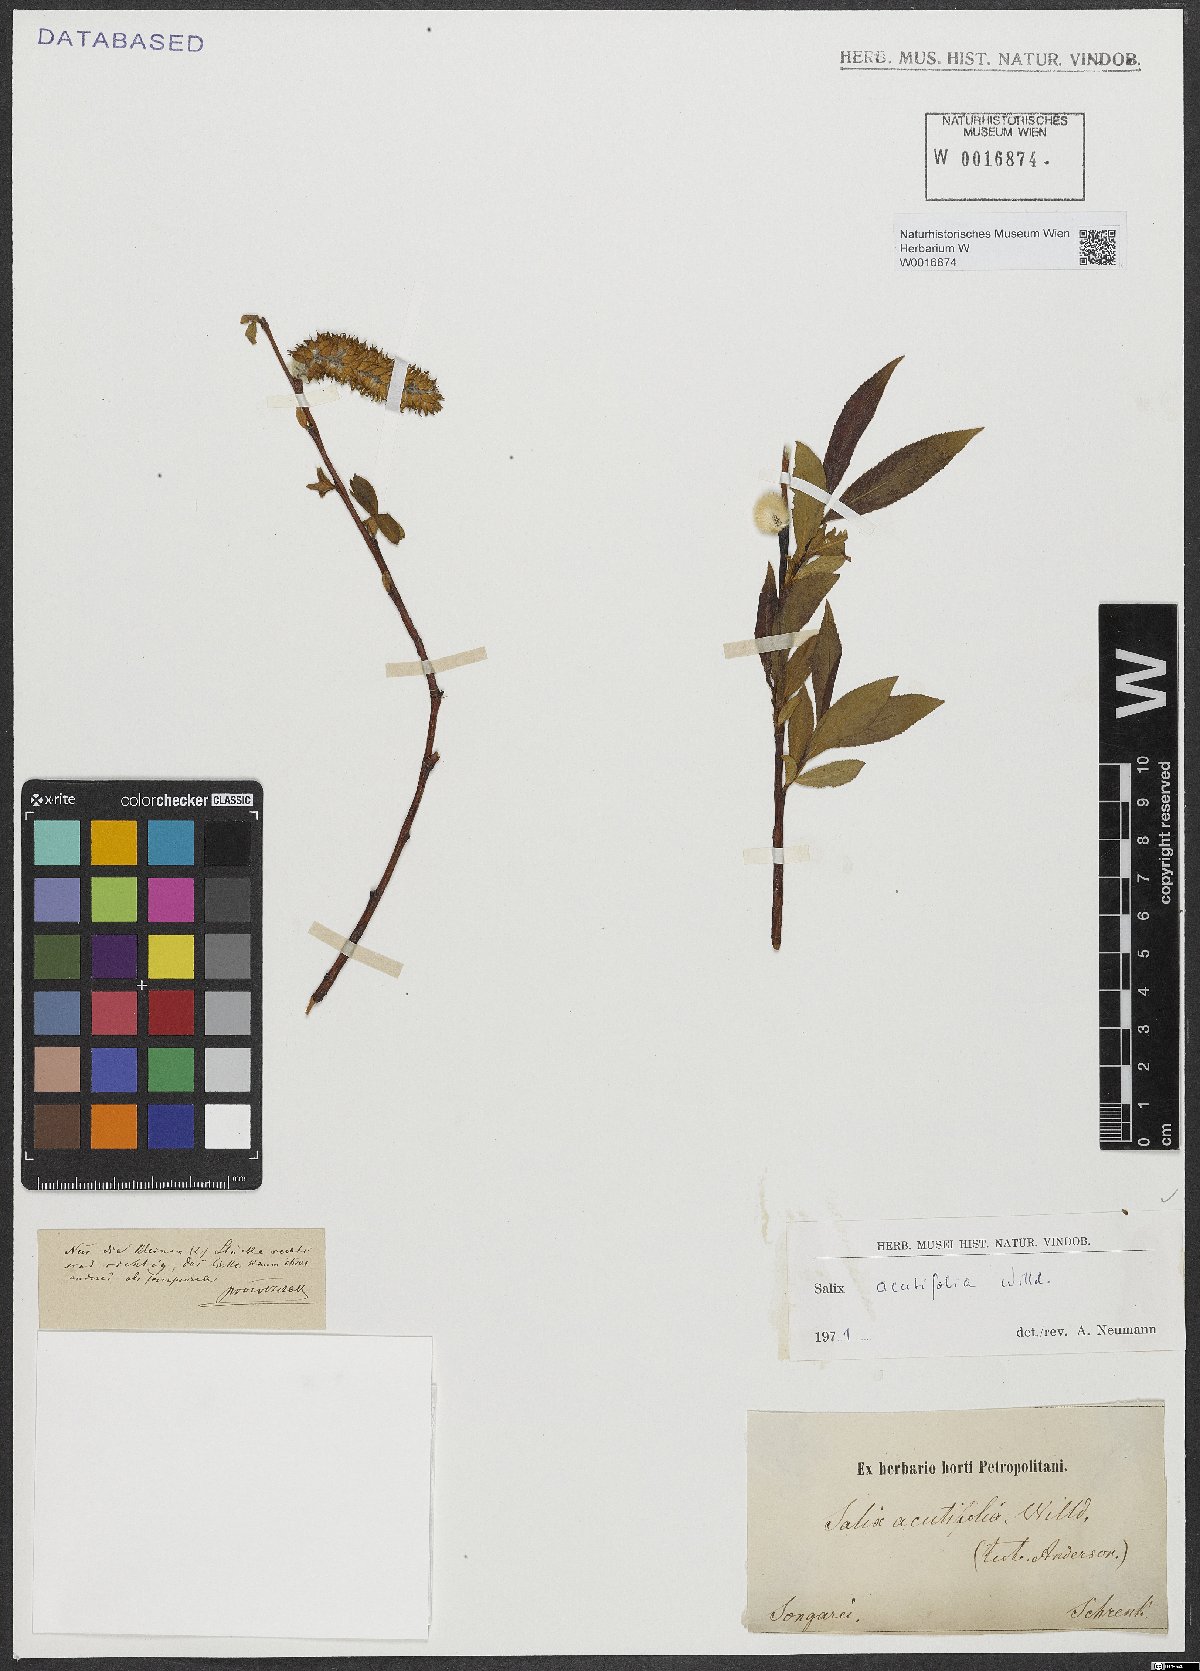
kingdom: Plantae
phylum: Tracheophyta
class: Magnoliopsida
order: Malpighiales
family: Salicaceae
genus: Salix
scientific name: Salix acutifolia
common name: Siberian violet-willow
